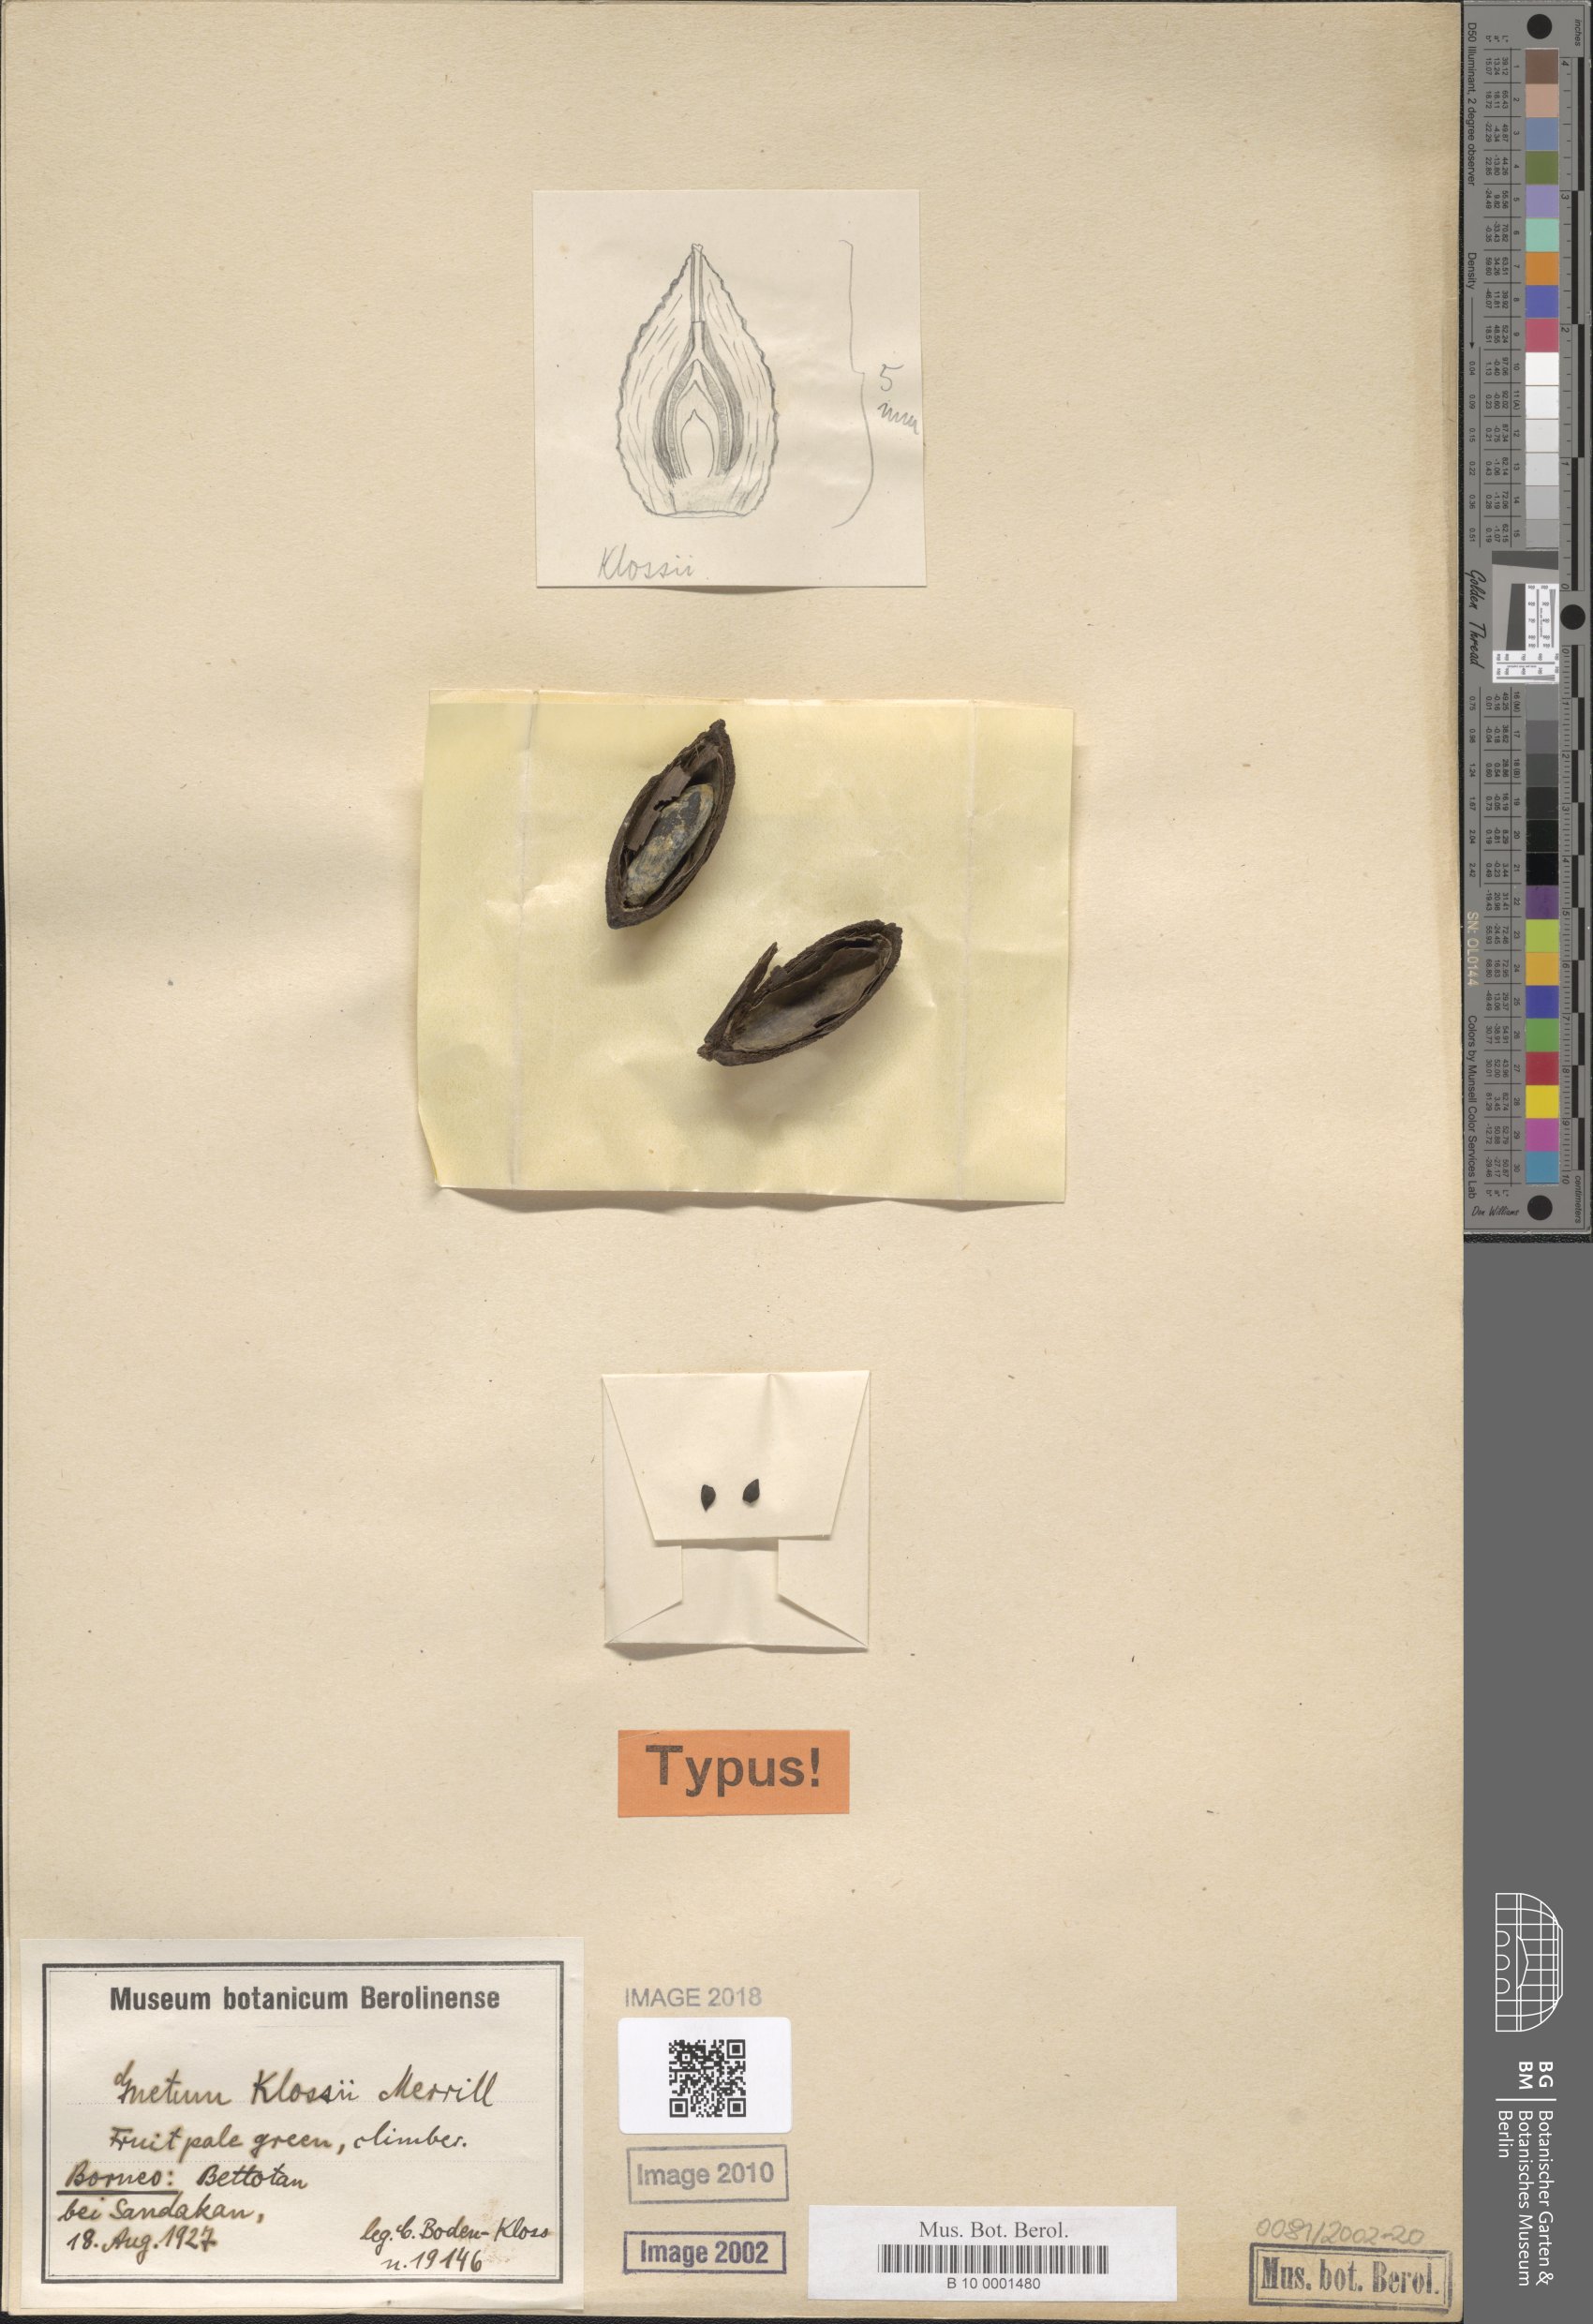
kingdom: Plantae
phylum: Tracheophyta
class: Gnetopsida
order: Gnetales
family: Gnetaceae
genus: Gnetum
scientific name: Gnetum klossii
